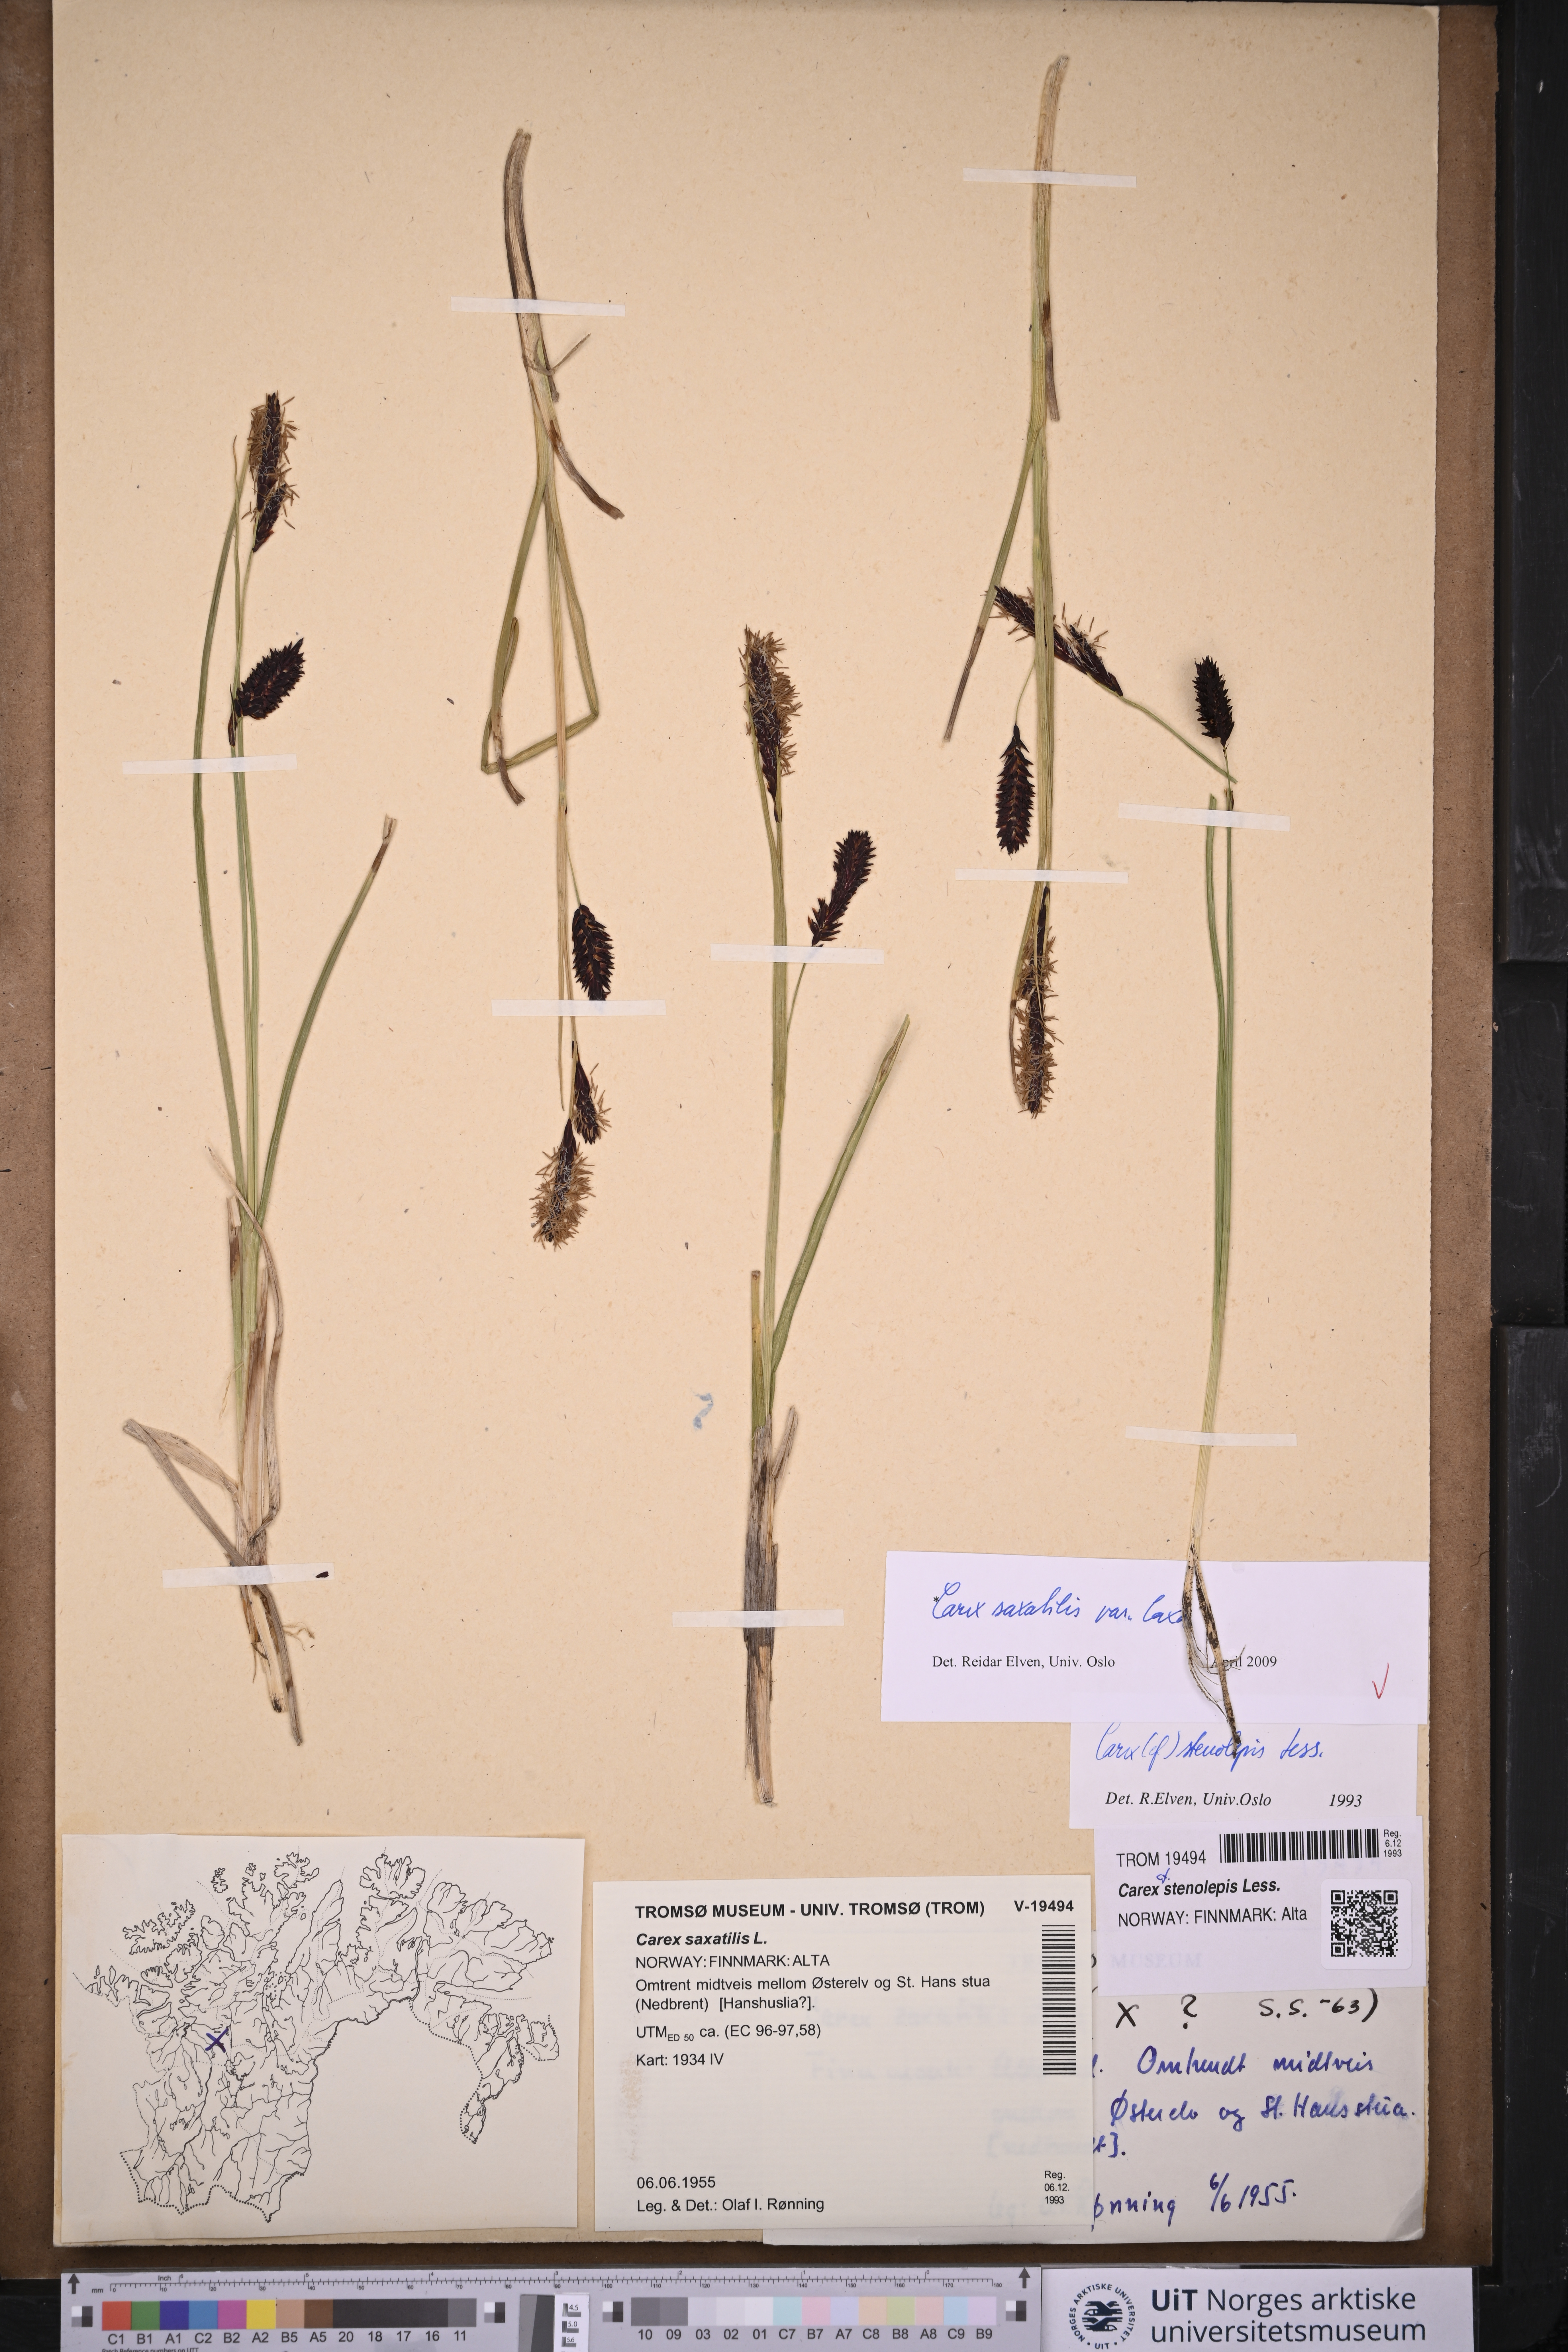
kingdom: Plantae
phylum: Tracheophyta
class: Liliopsida
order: Poales
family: Cyperaceae
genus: Carex
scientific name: Carex saxatilis
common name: Russet sedge
